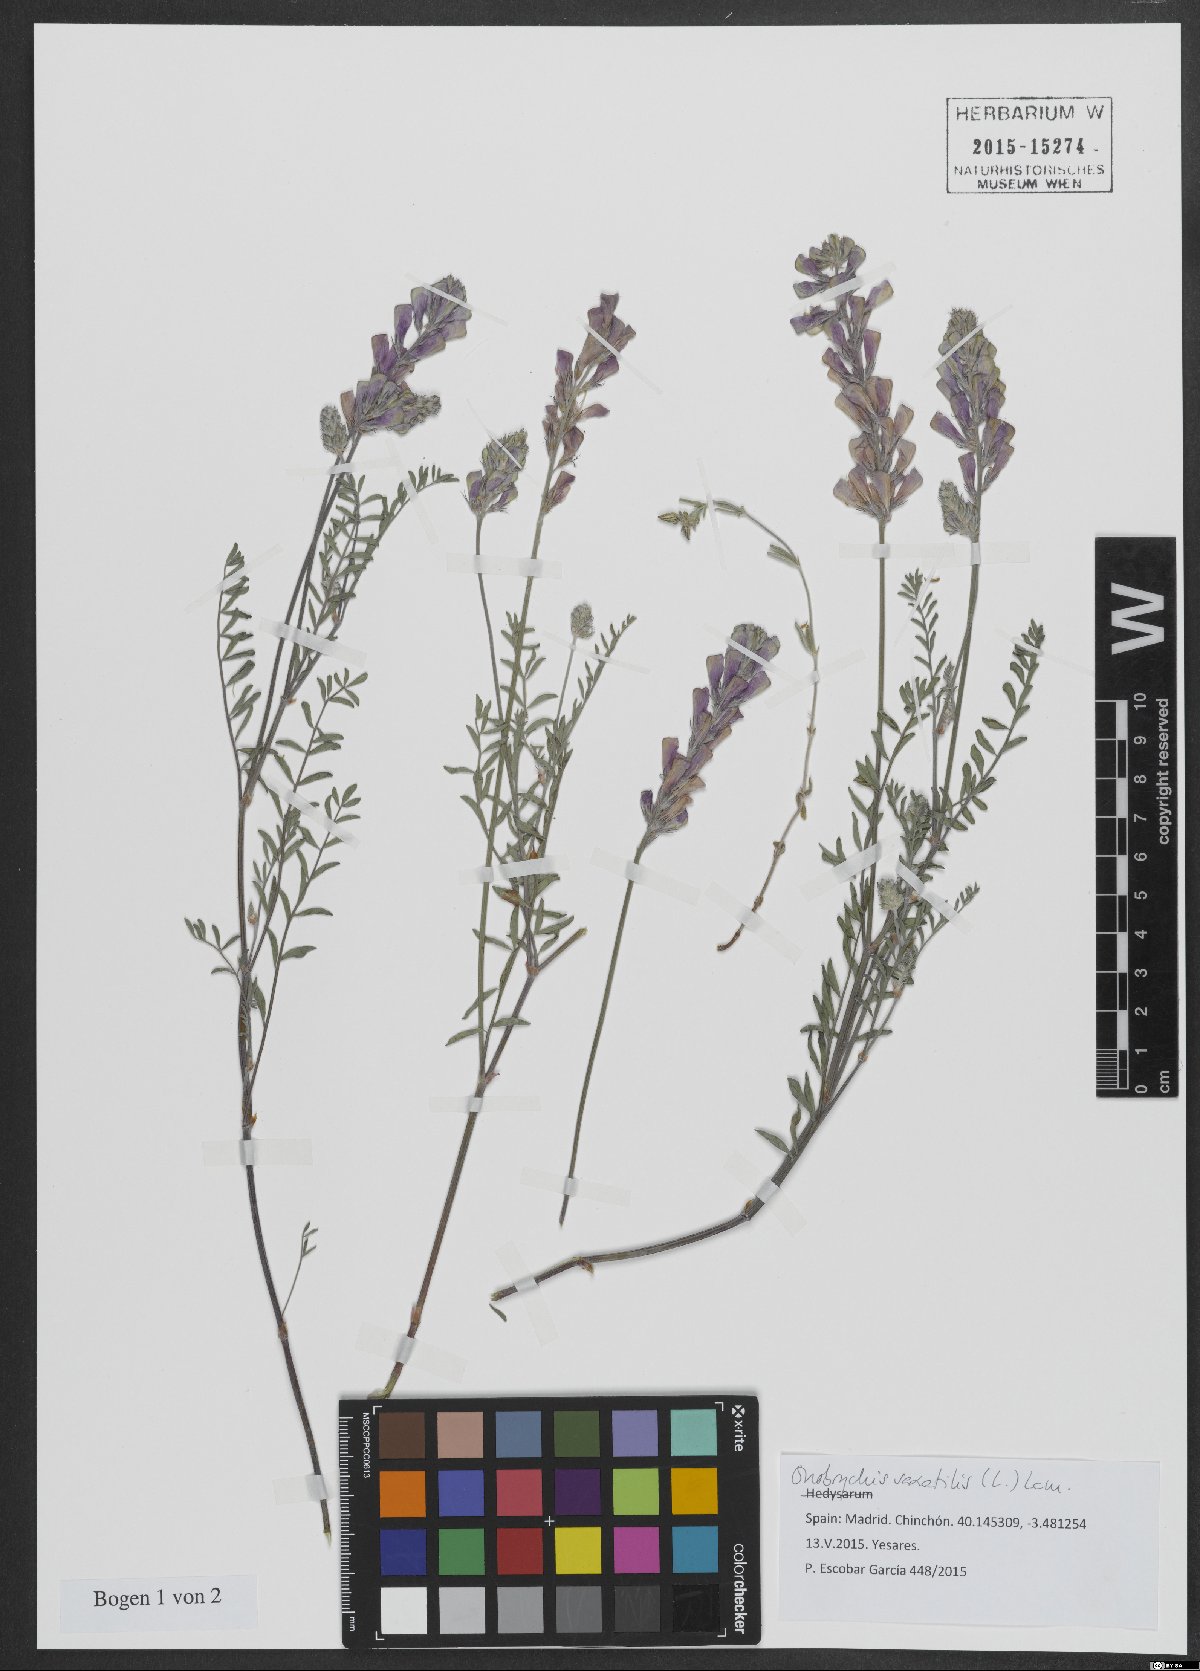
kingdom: Plantae
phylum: Tracheophyta
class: Magnoliopsida
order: Fabales
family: Fabaceae
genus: Onobrychis
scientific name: Onobrychis saxatilis
